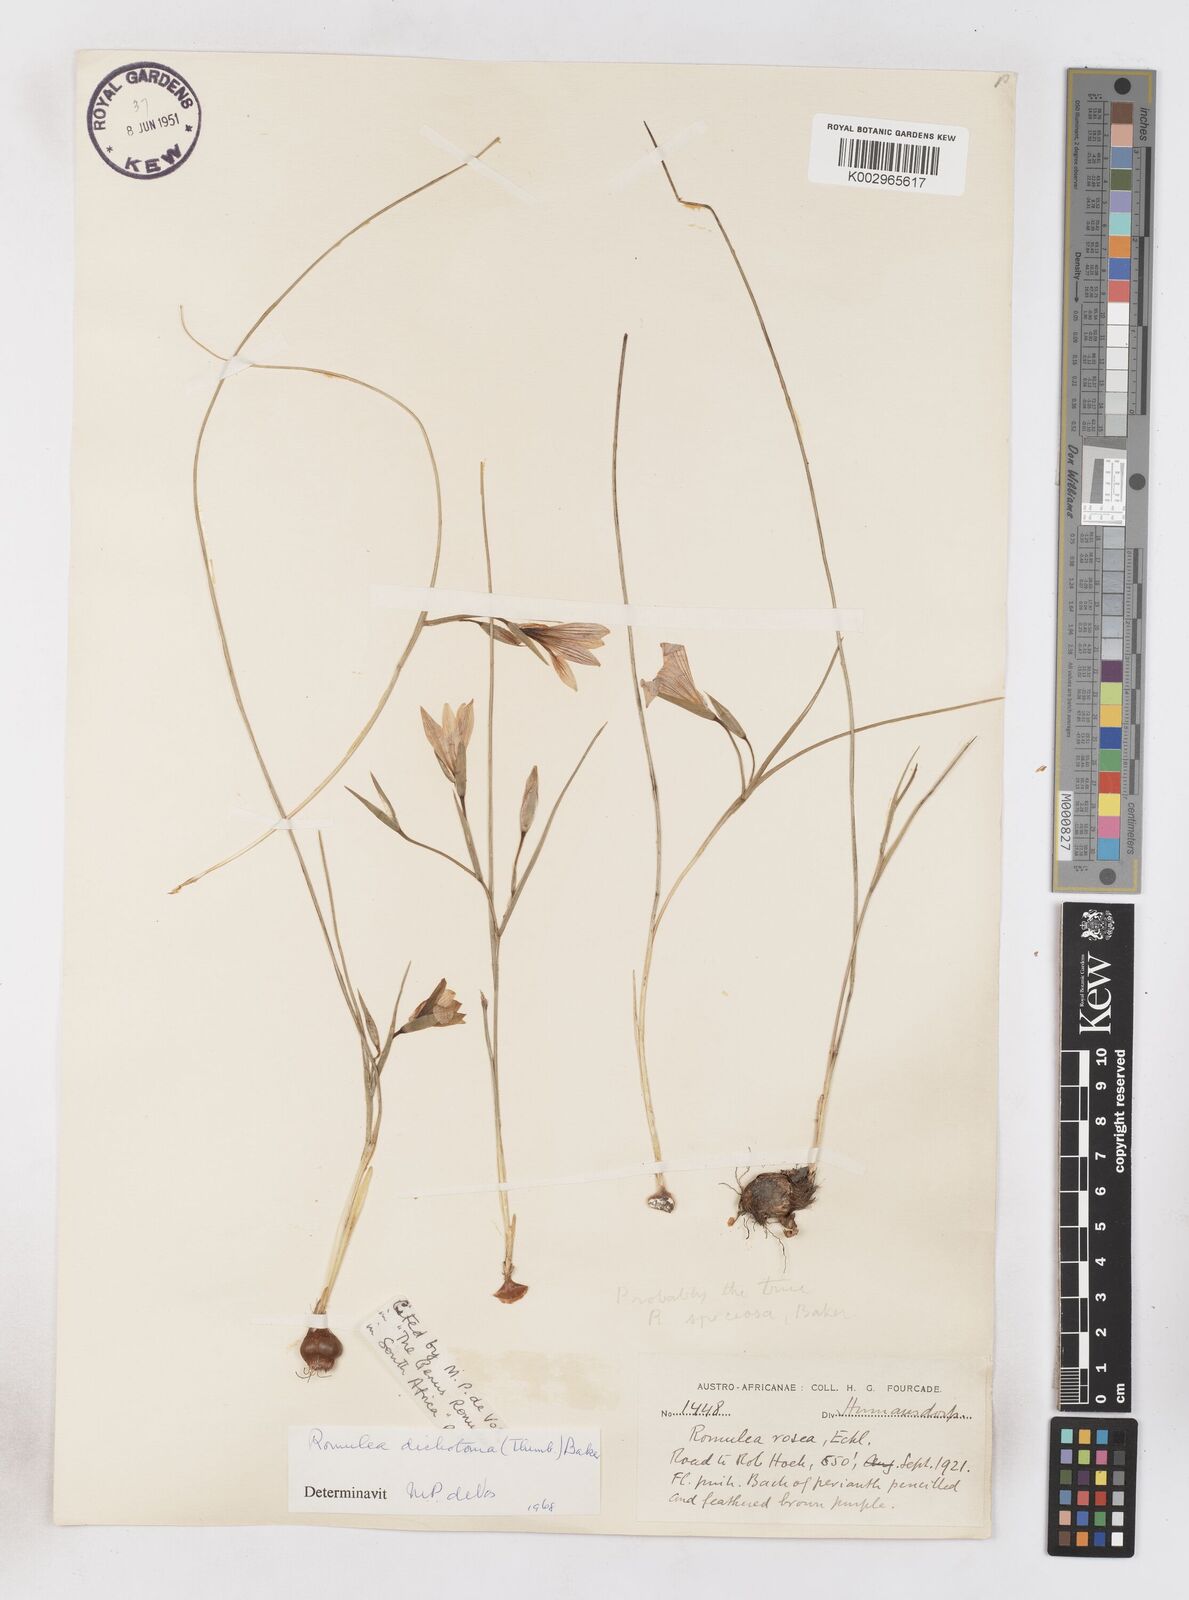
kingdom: Plantae
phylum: Tracheophyta
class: Liliopsida
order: Asparagales
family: Iridaceae
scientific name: Iridaceae
